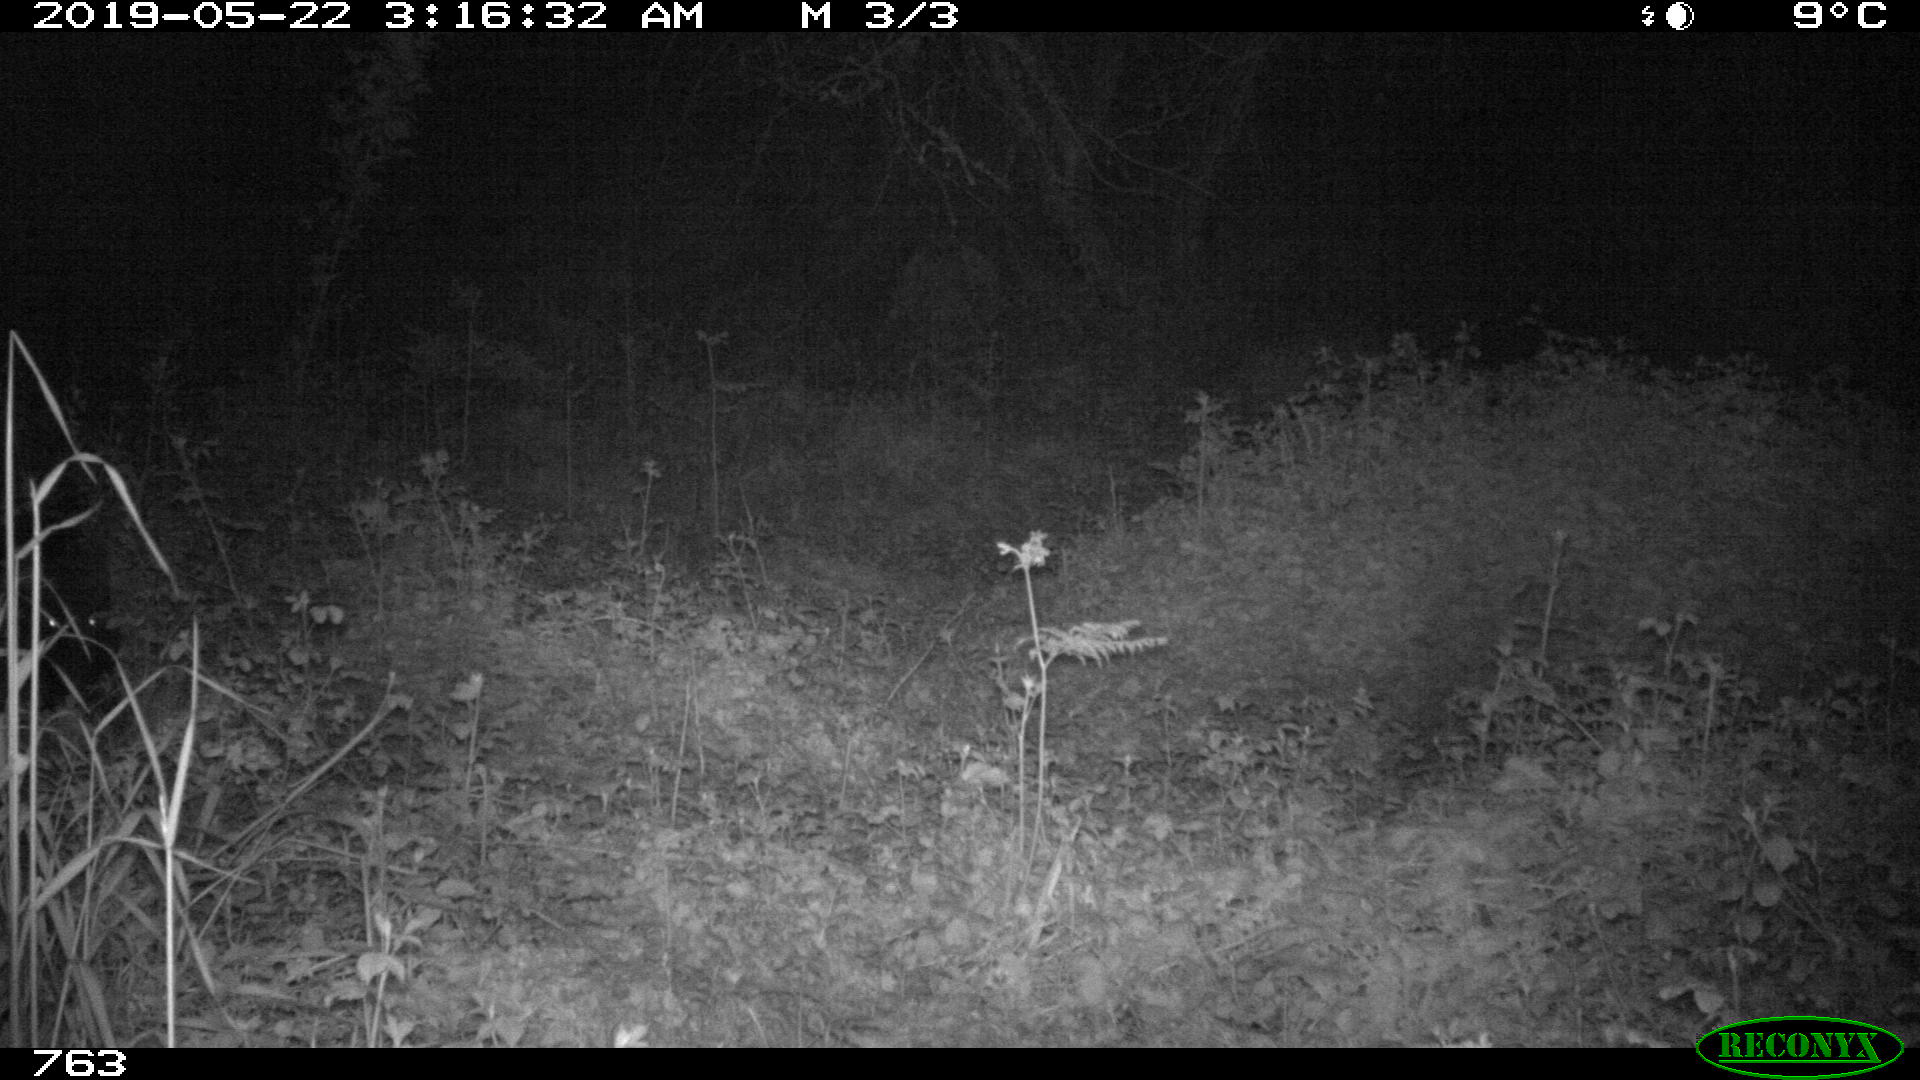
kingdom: Animalia
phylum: Chordata
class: Mammalia
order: Artiodactyla
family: Suidae
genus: Sus
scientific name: Sus scrofa
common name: Wild boar
